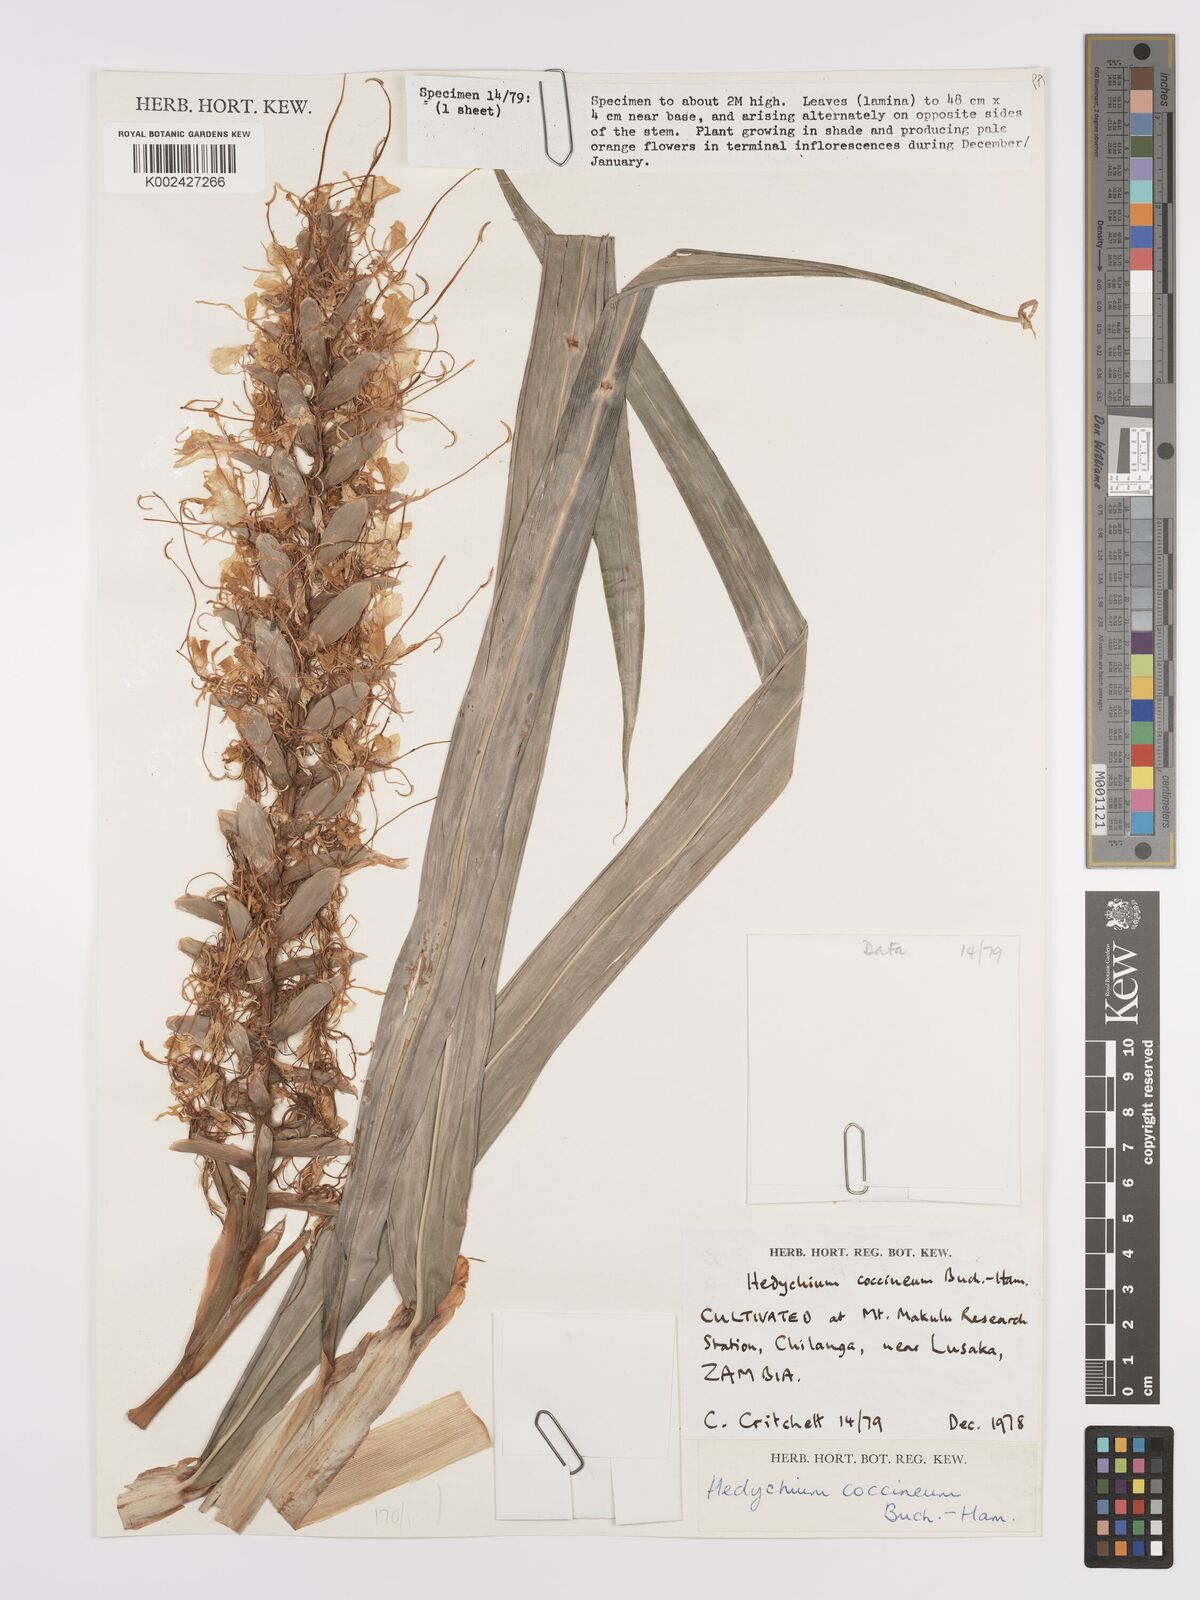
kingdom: Plantae
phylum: Tracheophyta
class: Liliopsida
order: Zingiberales
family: Zingiberaceae
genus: Hedychium
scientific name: Hedychium coccineum
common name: Red ginger-lily
